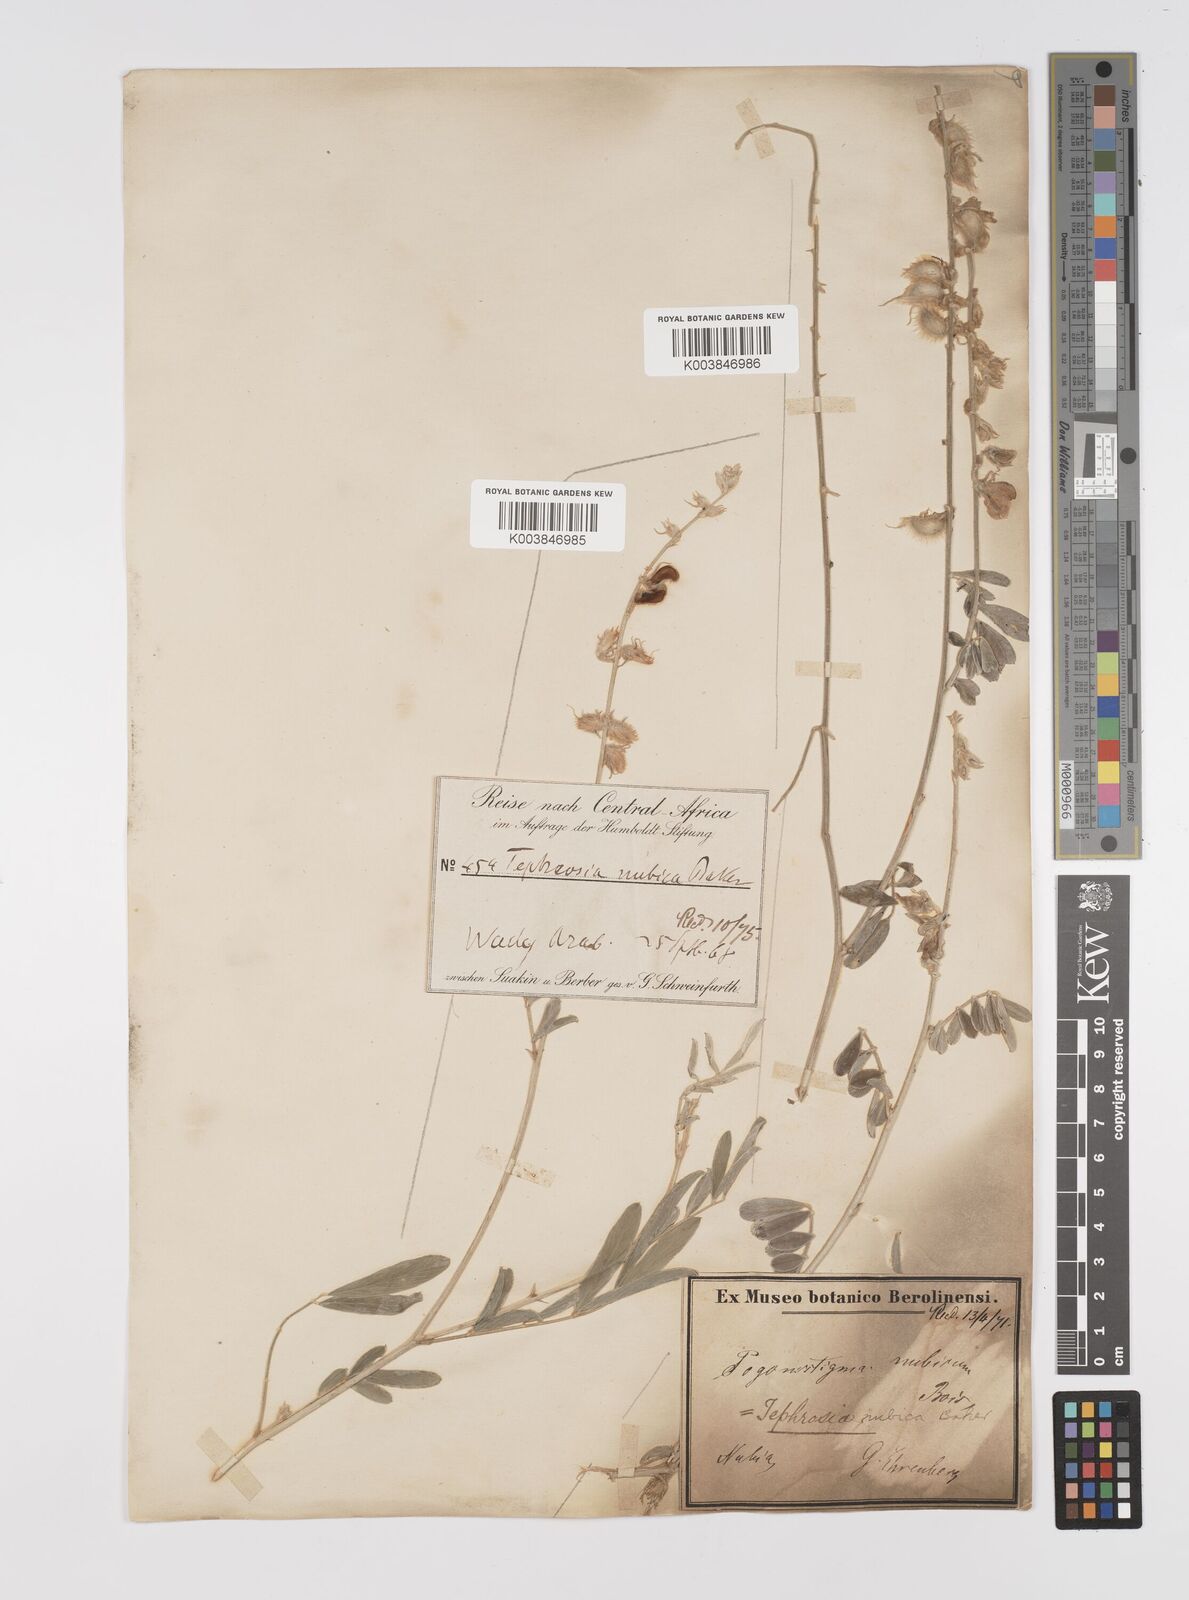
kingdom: Plantae
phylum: Tracheophyta
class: Magnoliopsida
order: Fabales
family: Fabaceae
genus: Tephrosia
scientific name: Tephrosia nubica
